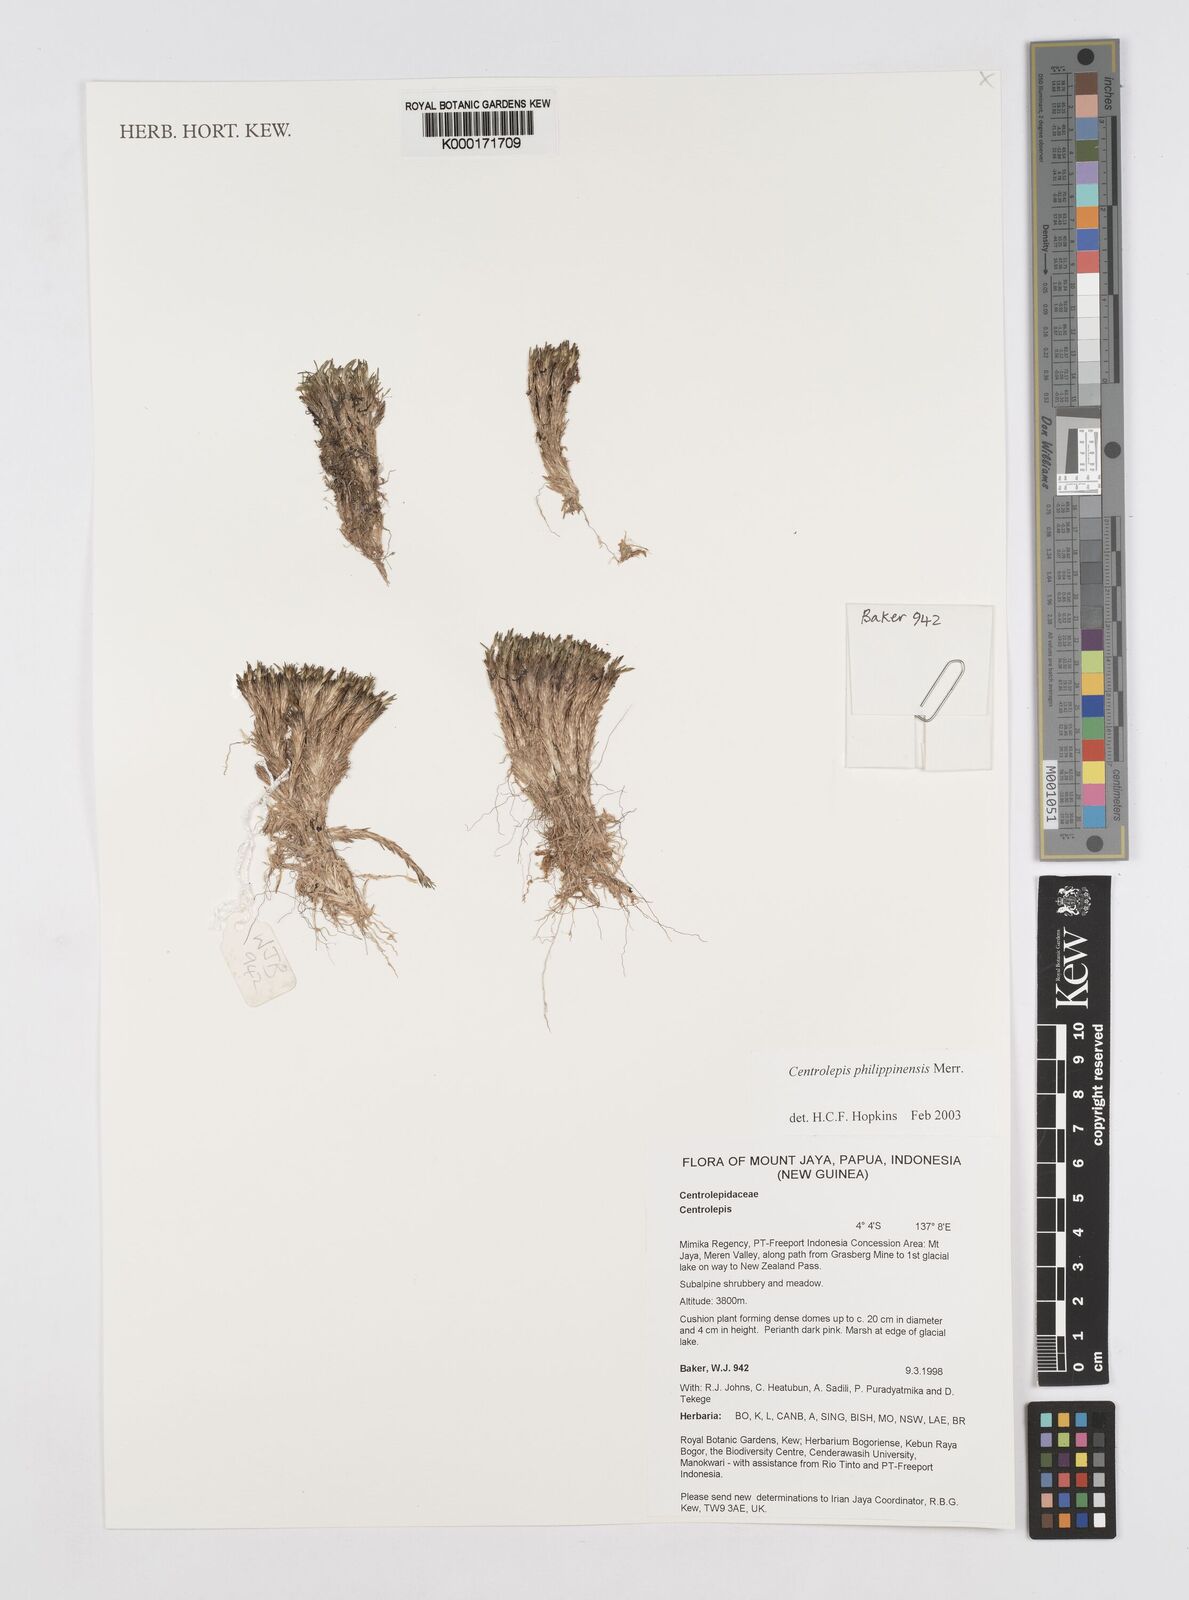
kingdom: Plantae
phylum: Tracheophyta
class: Liliopsida
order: Poales
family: Restionaceae
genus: Centrolepis
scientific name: Centrolepis philippinensis
